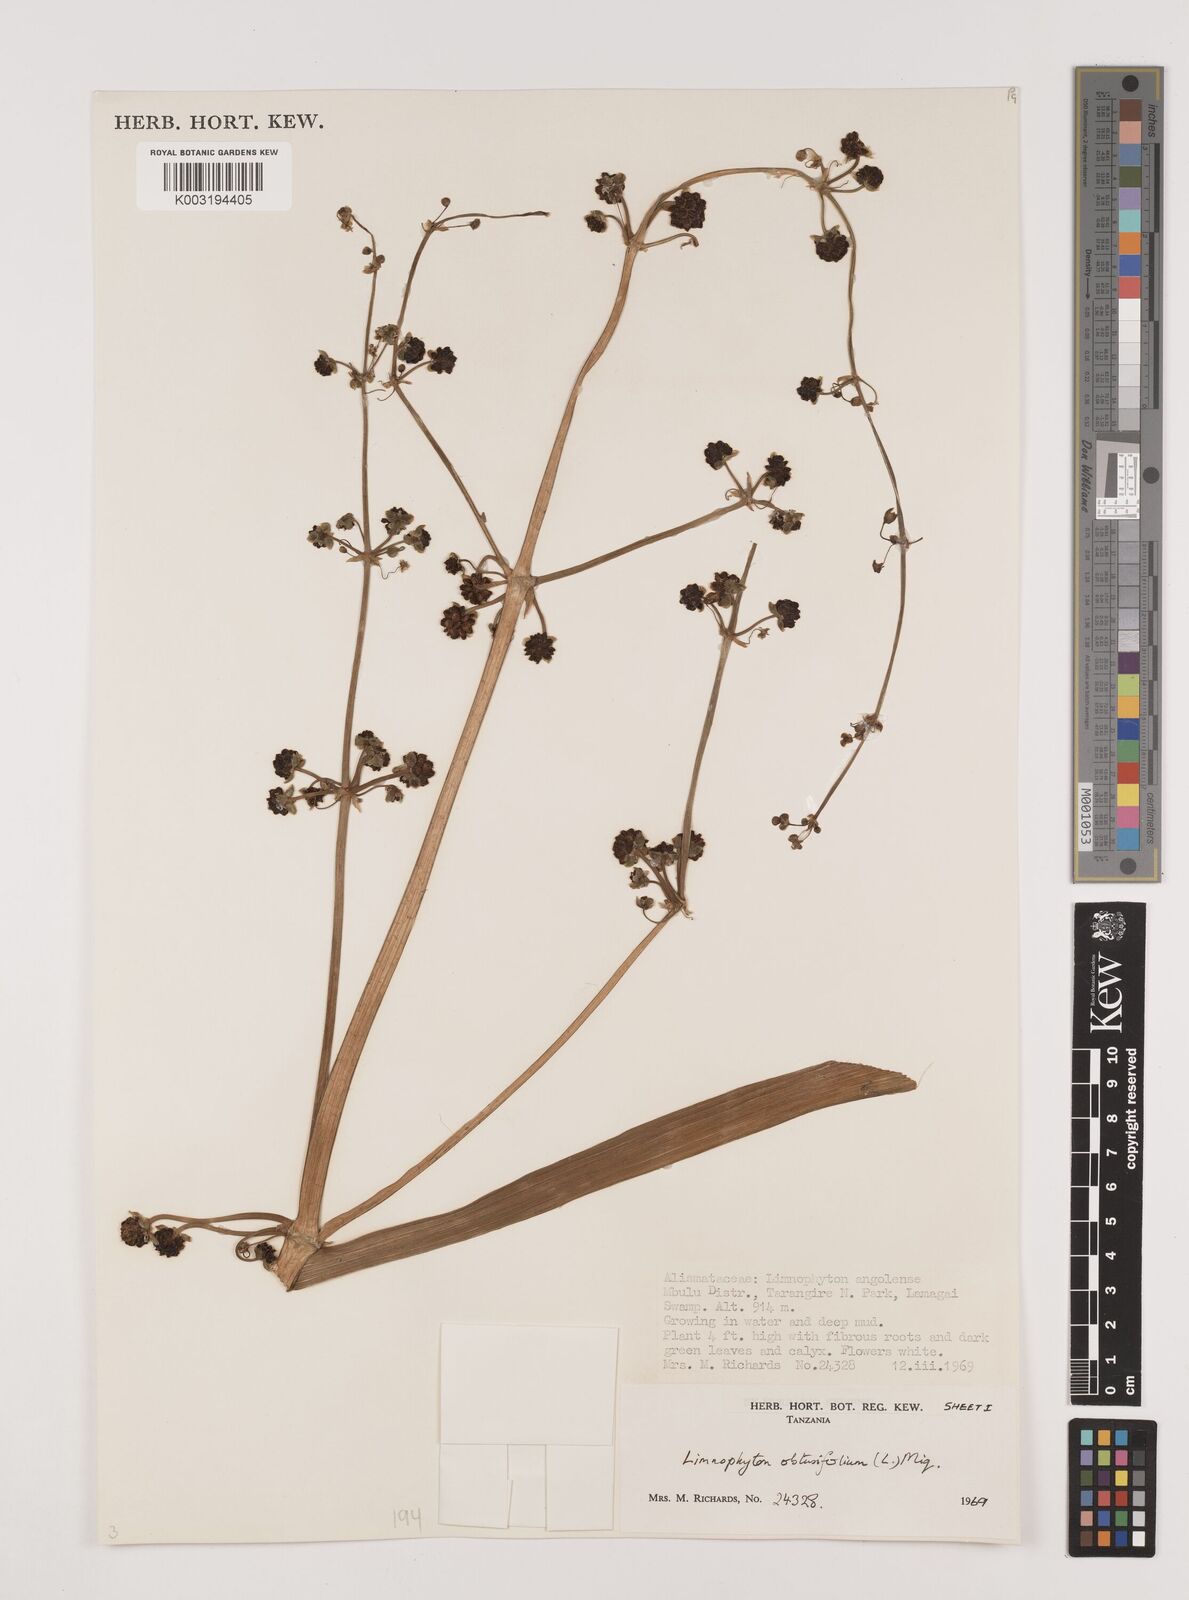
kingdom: Plantae
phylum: Tracheophyta
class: Liliopsida
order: Alismatales
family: Alismataceae
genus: Limnophyton
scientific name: Limnophyton obtusifolium
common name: Arrow head
